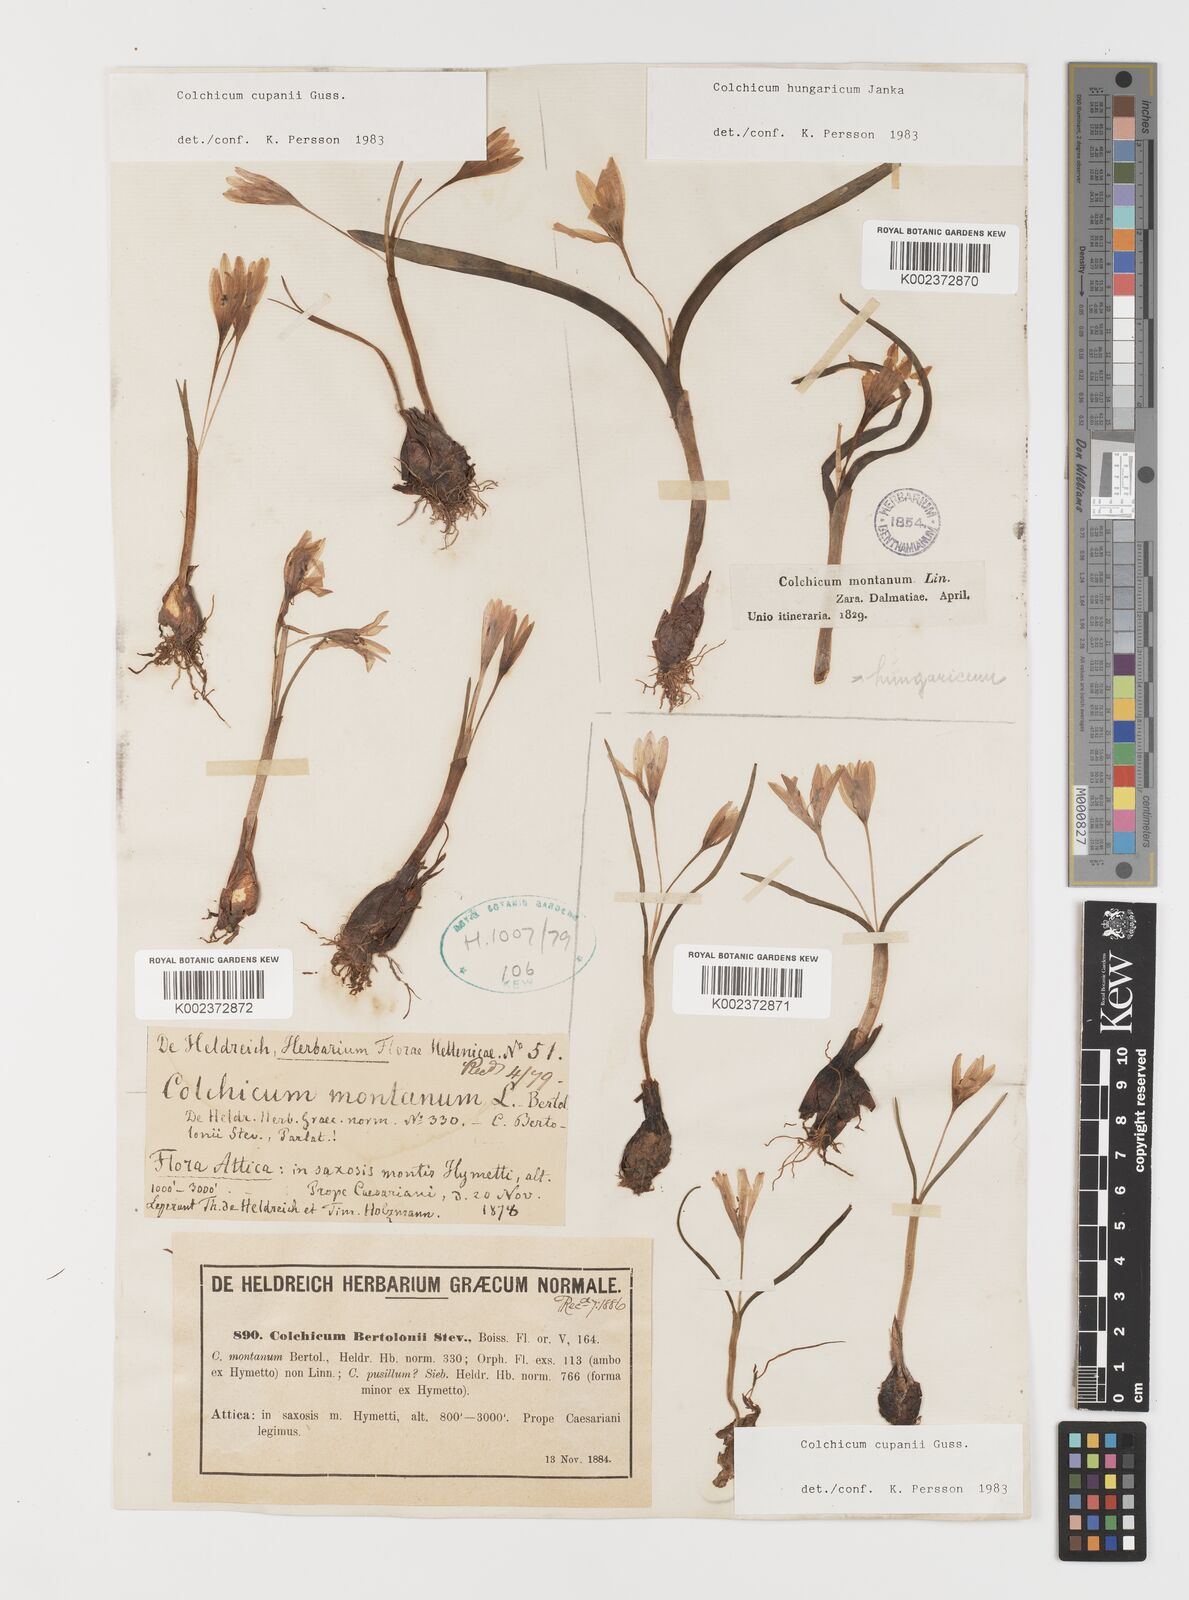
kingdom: Plantae
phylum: Tracheophyta
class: Liliopsida
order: Liliales
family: Colchicaceae
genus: Colchicum
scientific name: Colchicum cupanii
